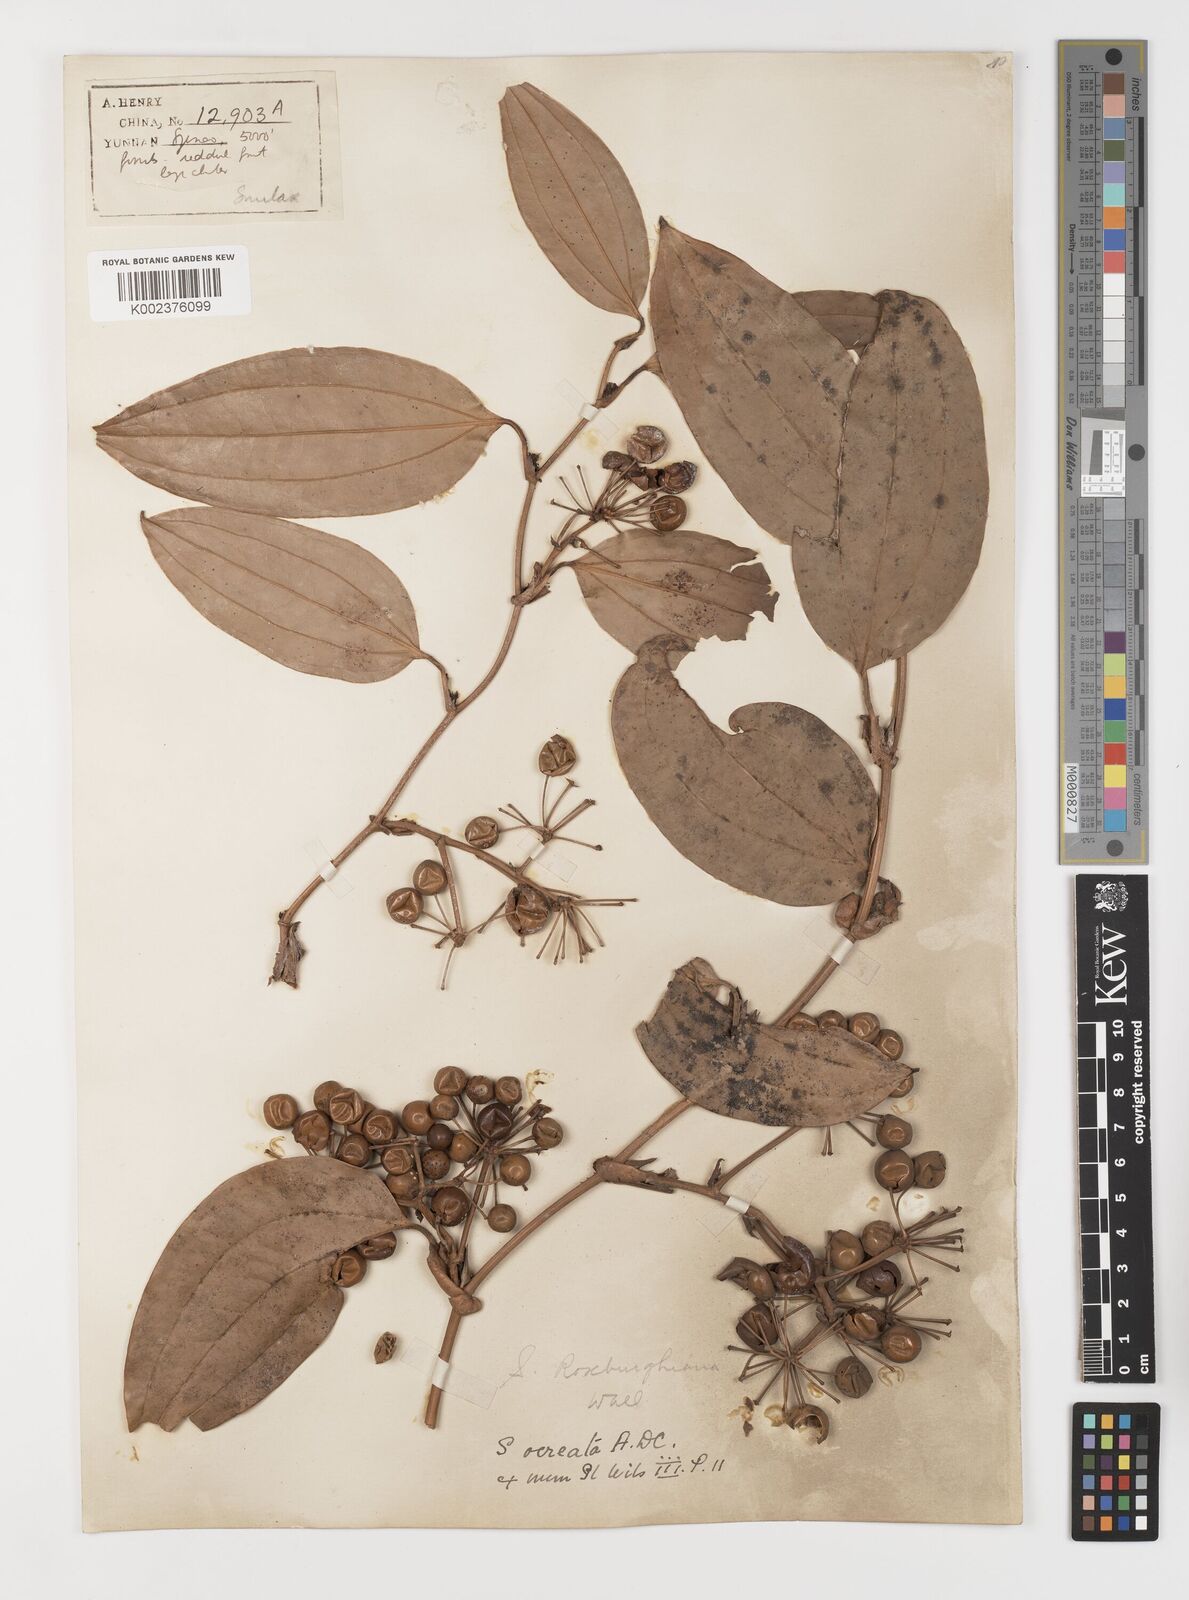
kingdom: Plantae
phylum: Tracheophyta
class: Liliopsida
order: Liliales
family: Smilacaceae
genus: Smilax
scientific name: Smilax
